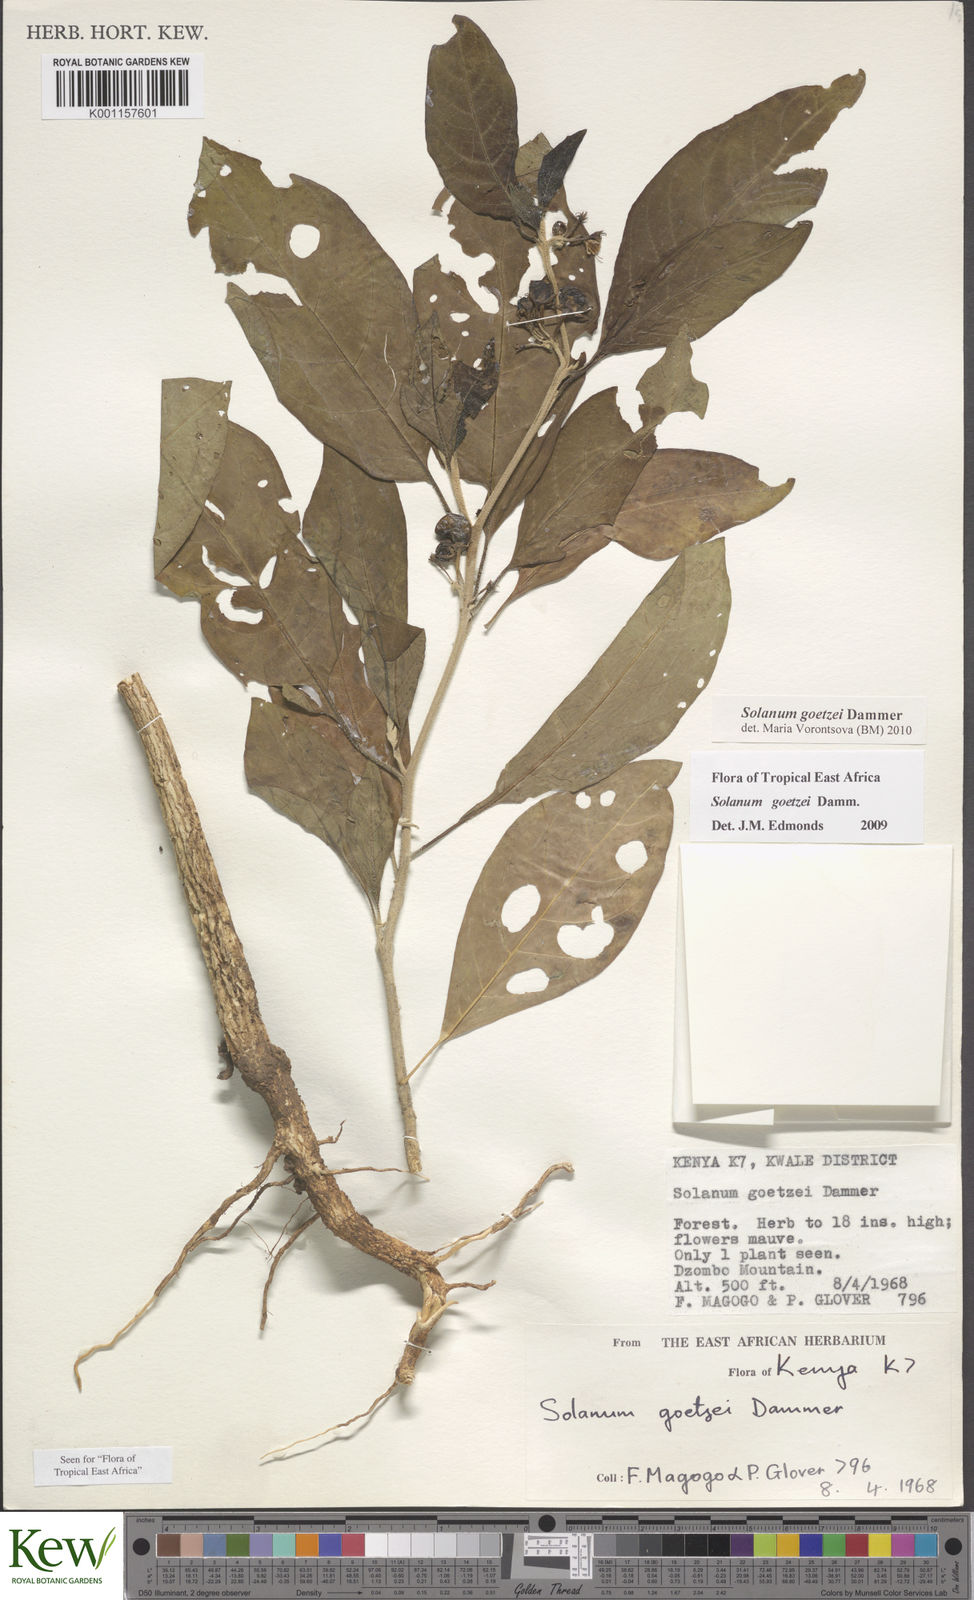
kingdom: Plantae
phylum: Tracheophyta
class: Magnoliopsida
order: Solanales
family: Solanaceae
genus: Solanum
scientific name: Solanum goetzei
